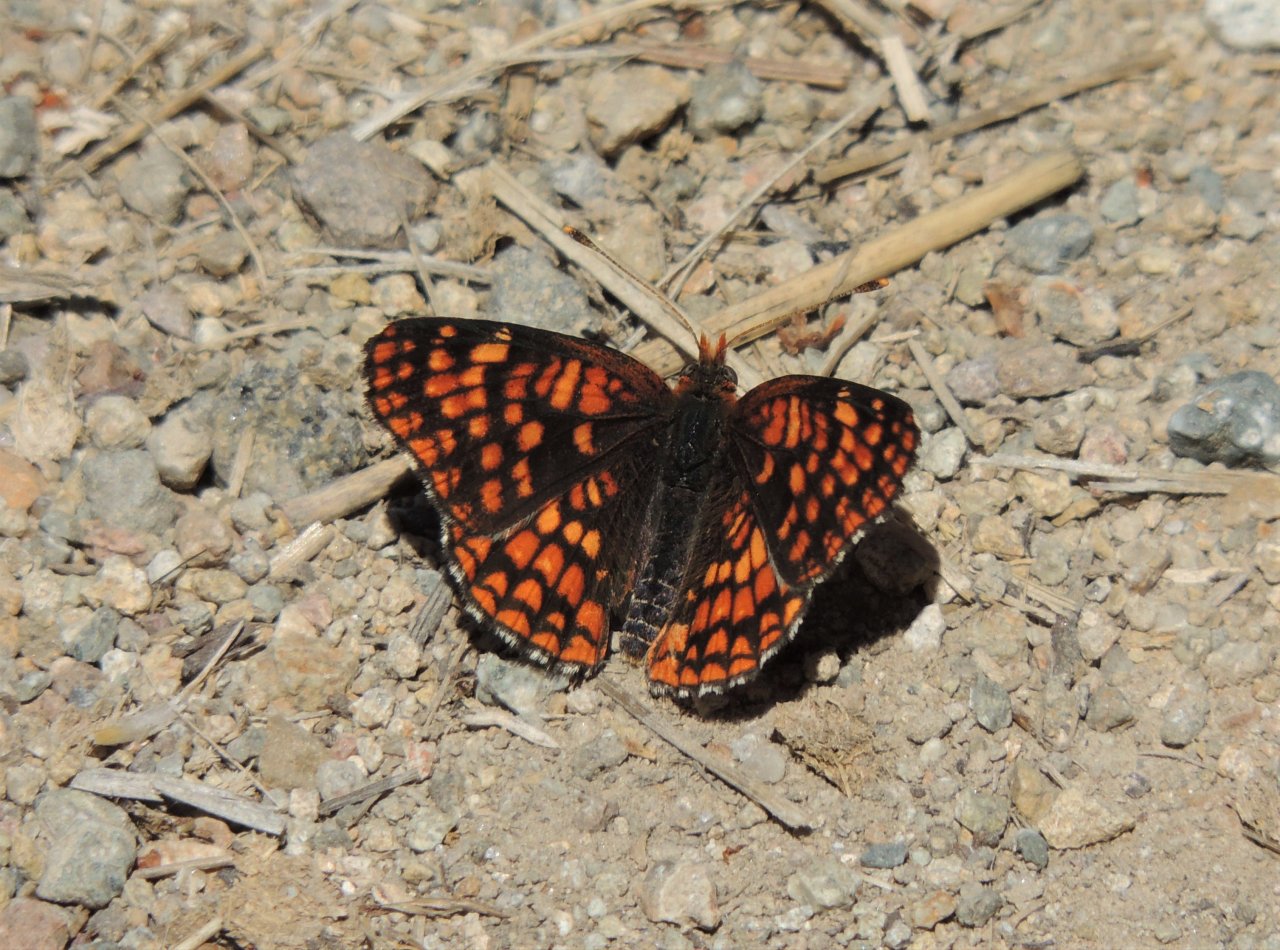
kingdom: Animalia
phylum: Arthropoda
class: Insecta
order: Lepidoptera
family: Nymphalidae
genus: Chlosyne
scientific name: Chlosyne palla
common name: Northern Checkerspot
